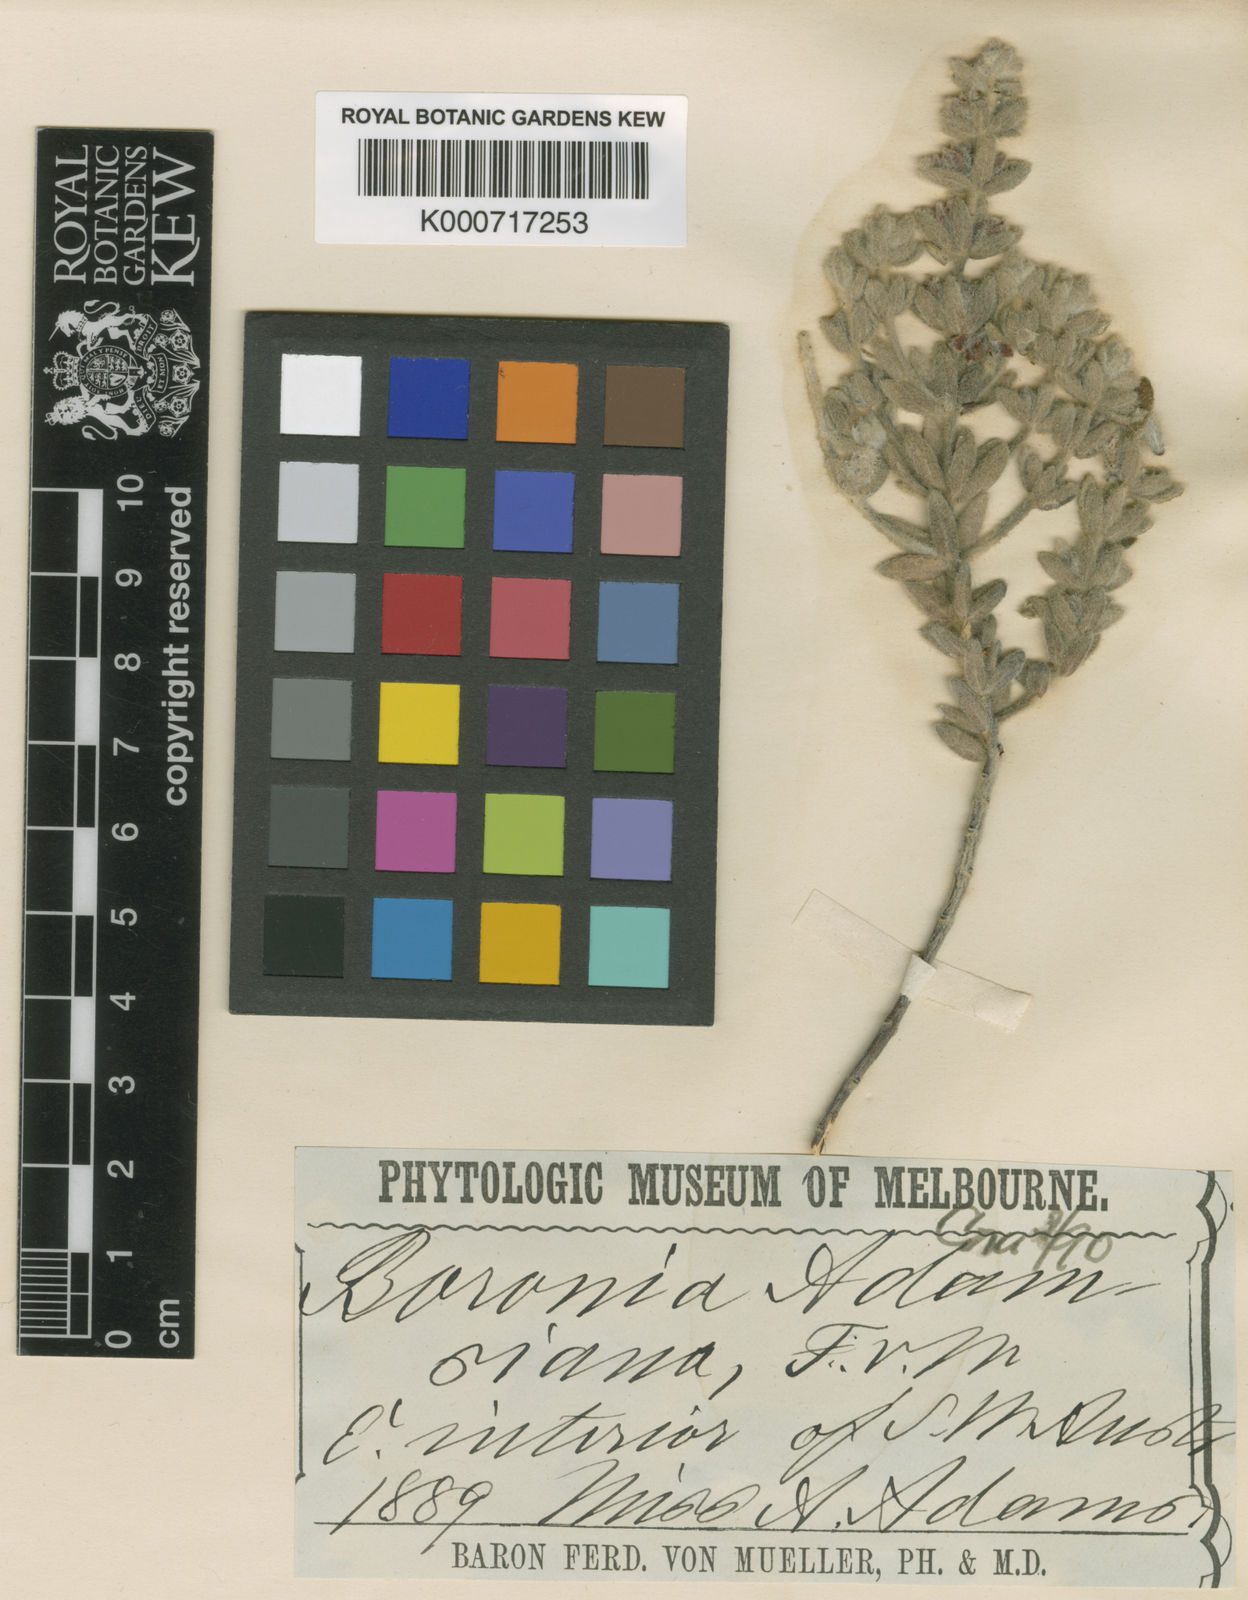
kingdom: Plantae
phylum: Tracheophyta
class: Magnoliopsida
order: Sapindales
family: Rutaceae
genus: Boronia
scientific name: Boronia adamsiana
